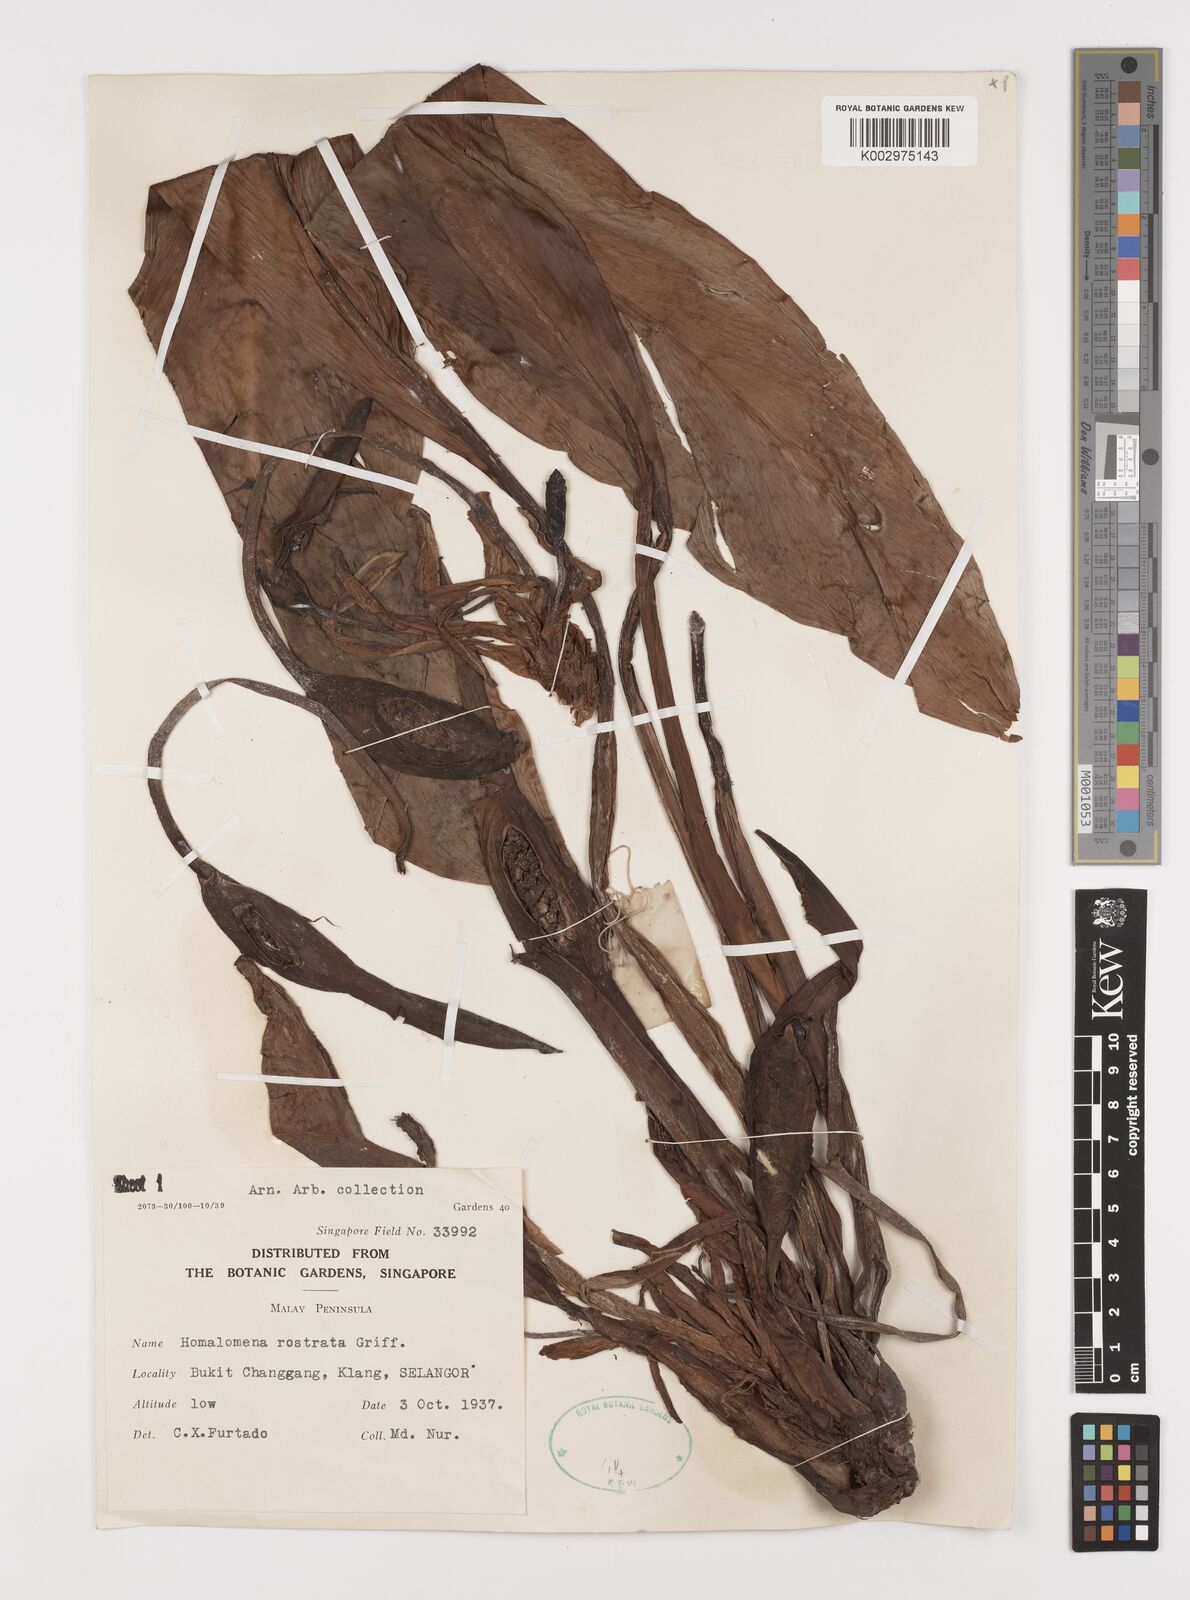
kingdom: Plantae
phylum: Tracheophyta
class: Liliopsida
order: Alismatales
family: Araceae
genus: Homalomena
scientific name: Homalomena rostrata
